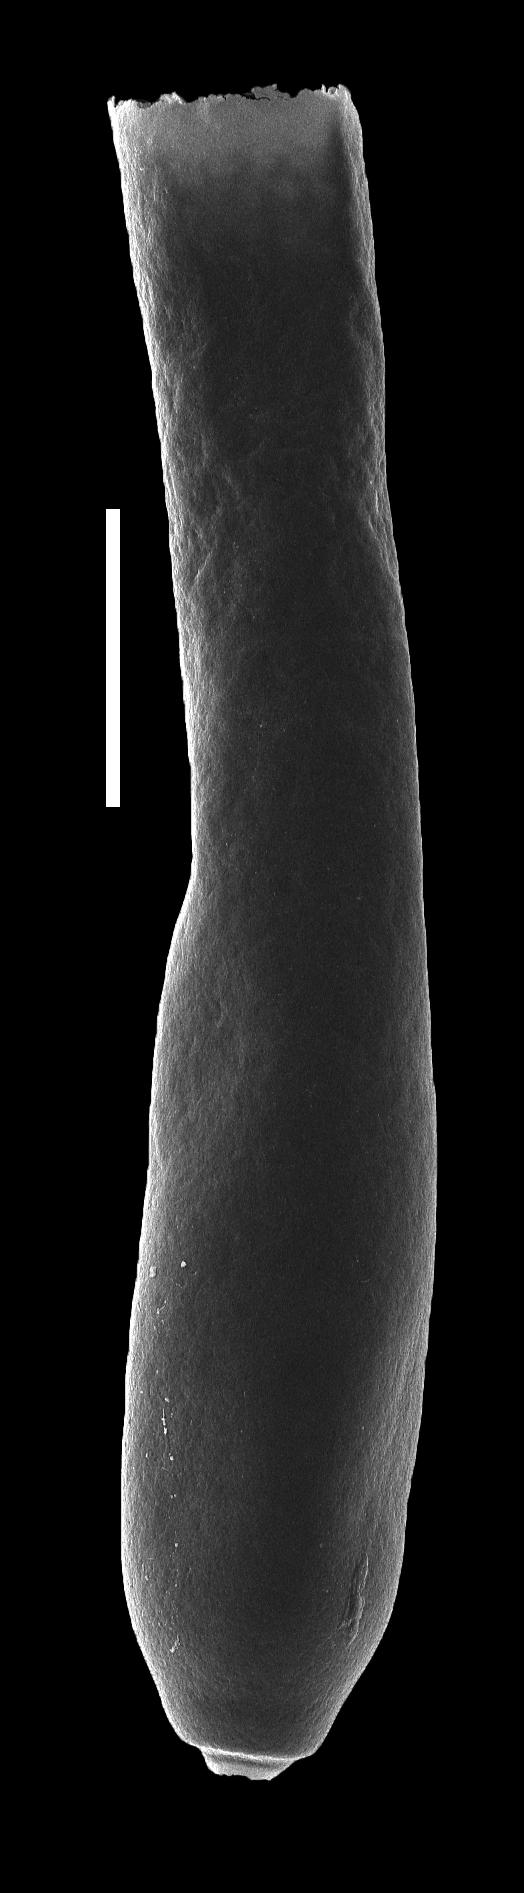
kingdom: Animalia
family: Conochitinidae
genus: Conochitina
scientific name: Conochitina
